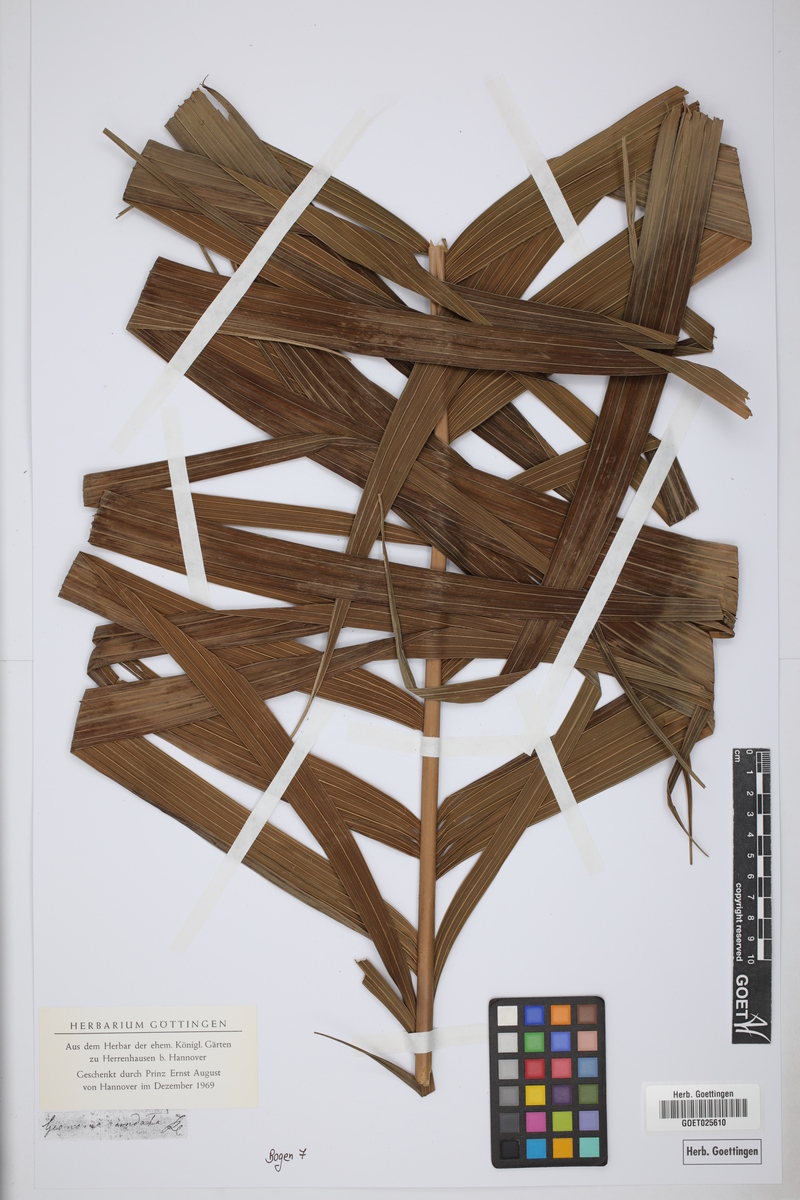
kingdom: Plantae
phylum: Tracheophyta
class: Liliopsida
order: Arecales
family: Arecaceae
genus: Geonoma
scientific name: Geonoma undata
